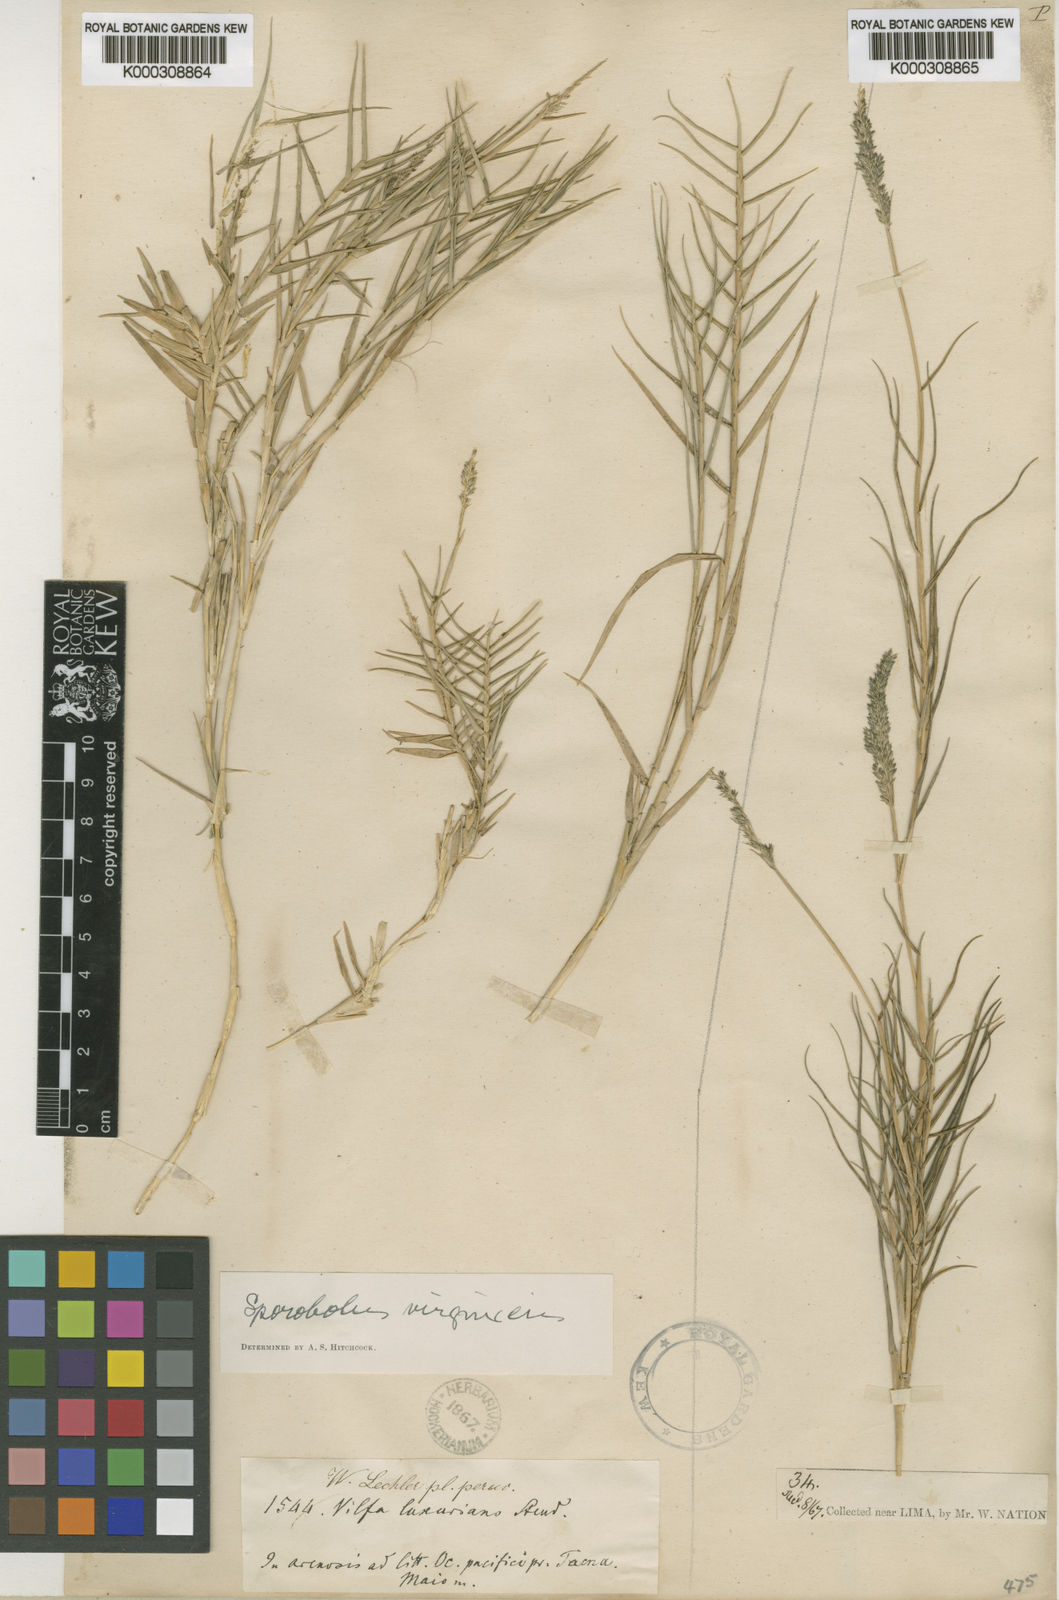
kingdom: Plantae
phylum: Tracheophyta
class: Liliopsida
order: Poales
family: Poaceae
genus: Sporobolus
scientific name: Sporobolus virginicus
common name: Beach dropseed
